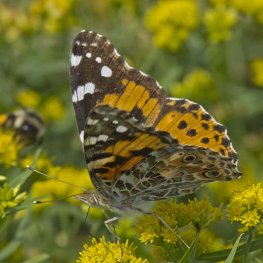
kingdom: Animalia
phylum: Arthropoda
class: Insecta
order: Lepidoptera
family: Nymphalidae
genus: Vanessa
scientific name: Vanessa cardui
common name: Painted Lady
